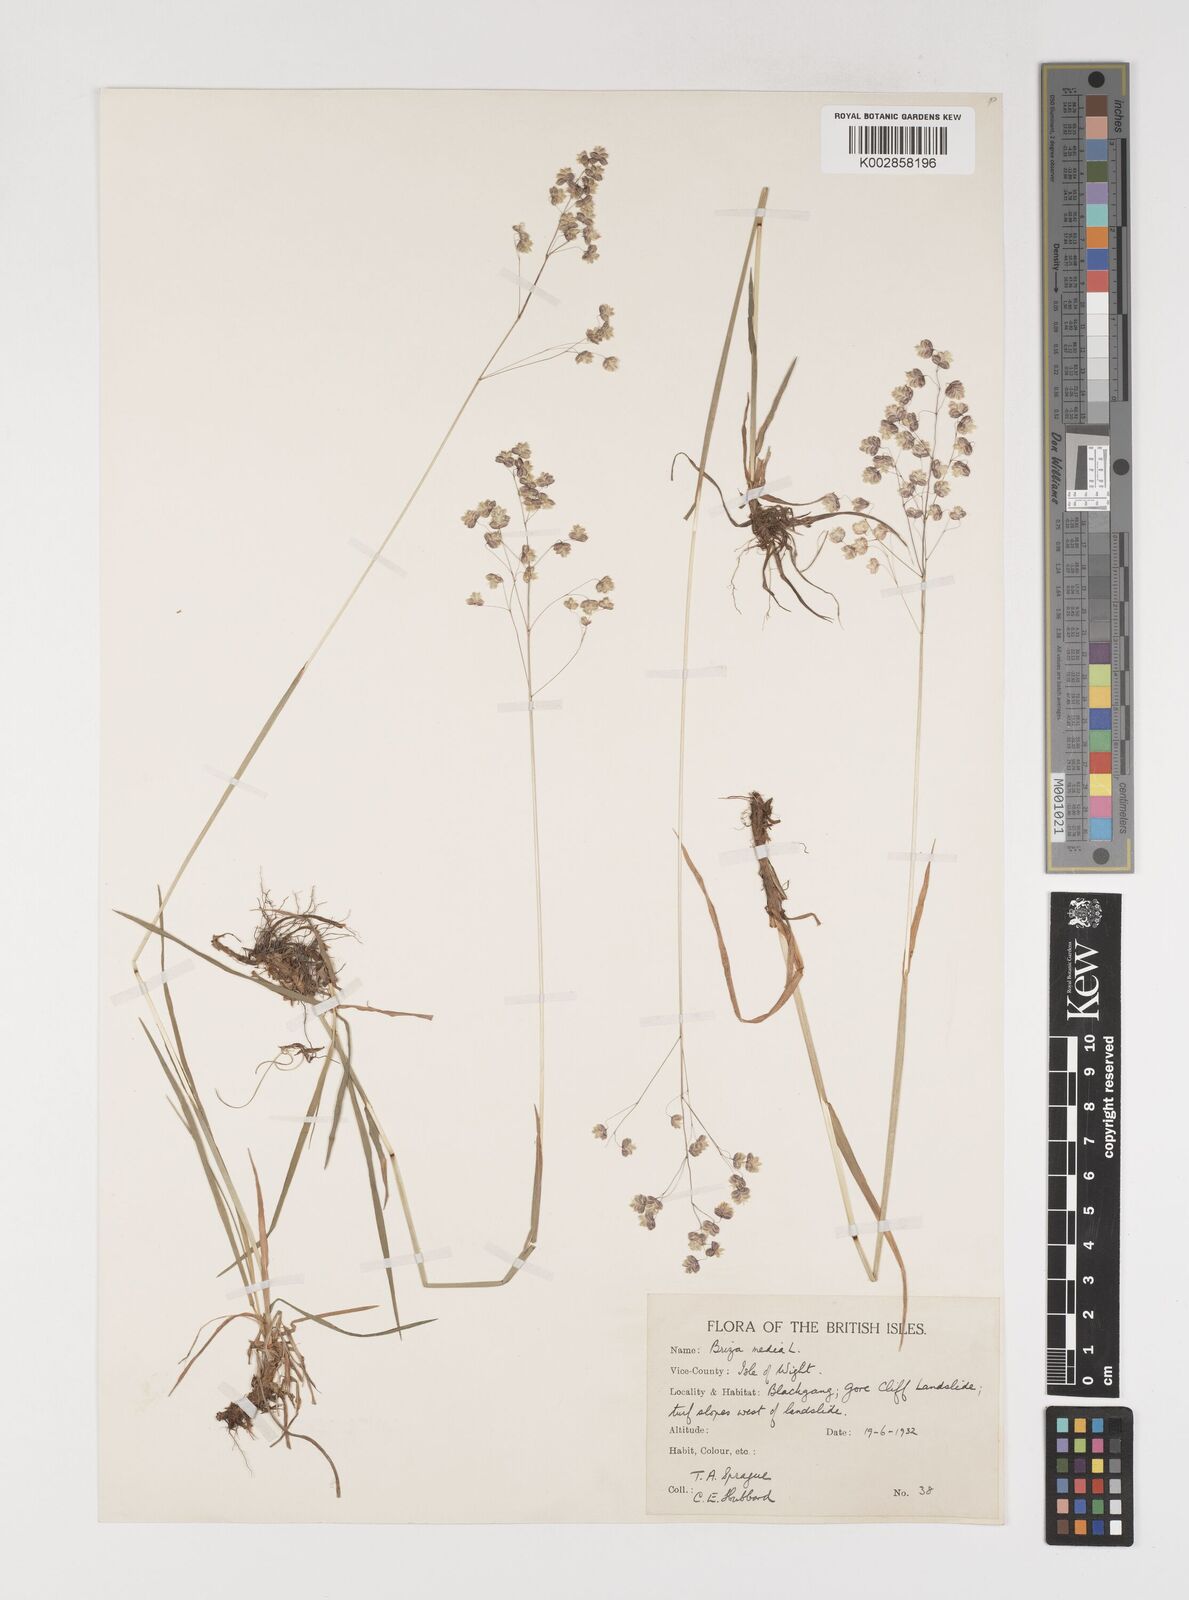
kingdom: Plantae
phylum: Tracheophyta
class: Liliopsida
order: Poales
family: Poaceae
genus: Briza
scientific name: Briza media
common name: Quaking grass
